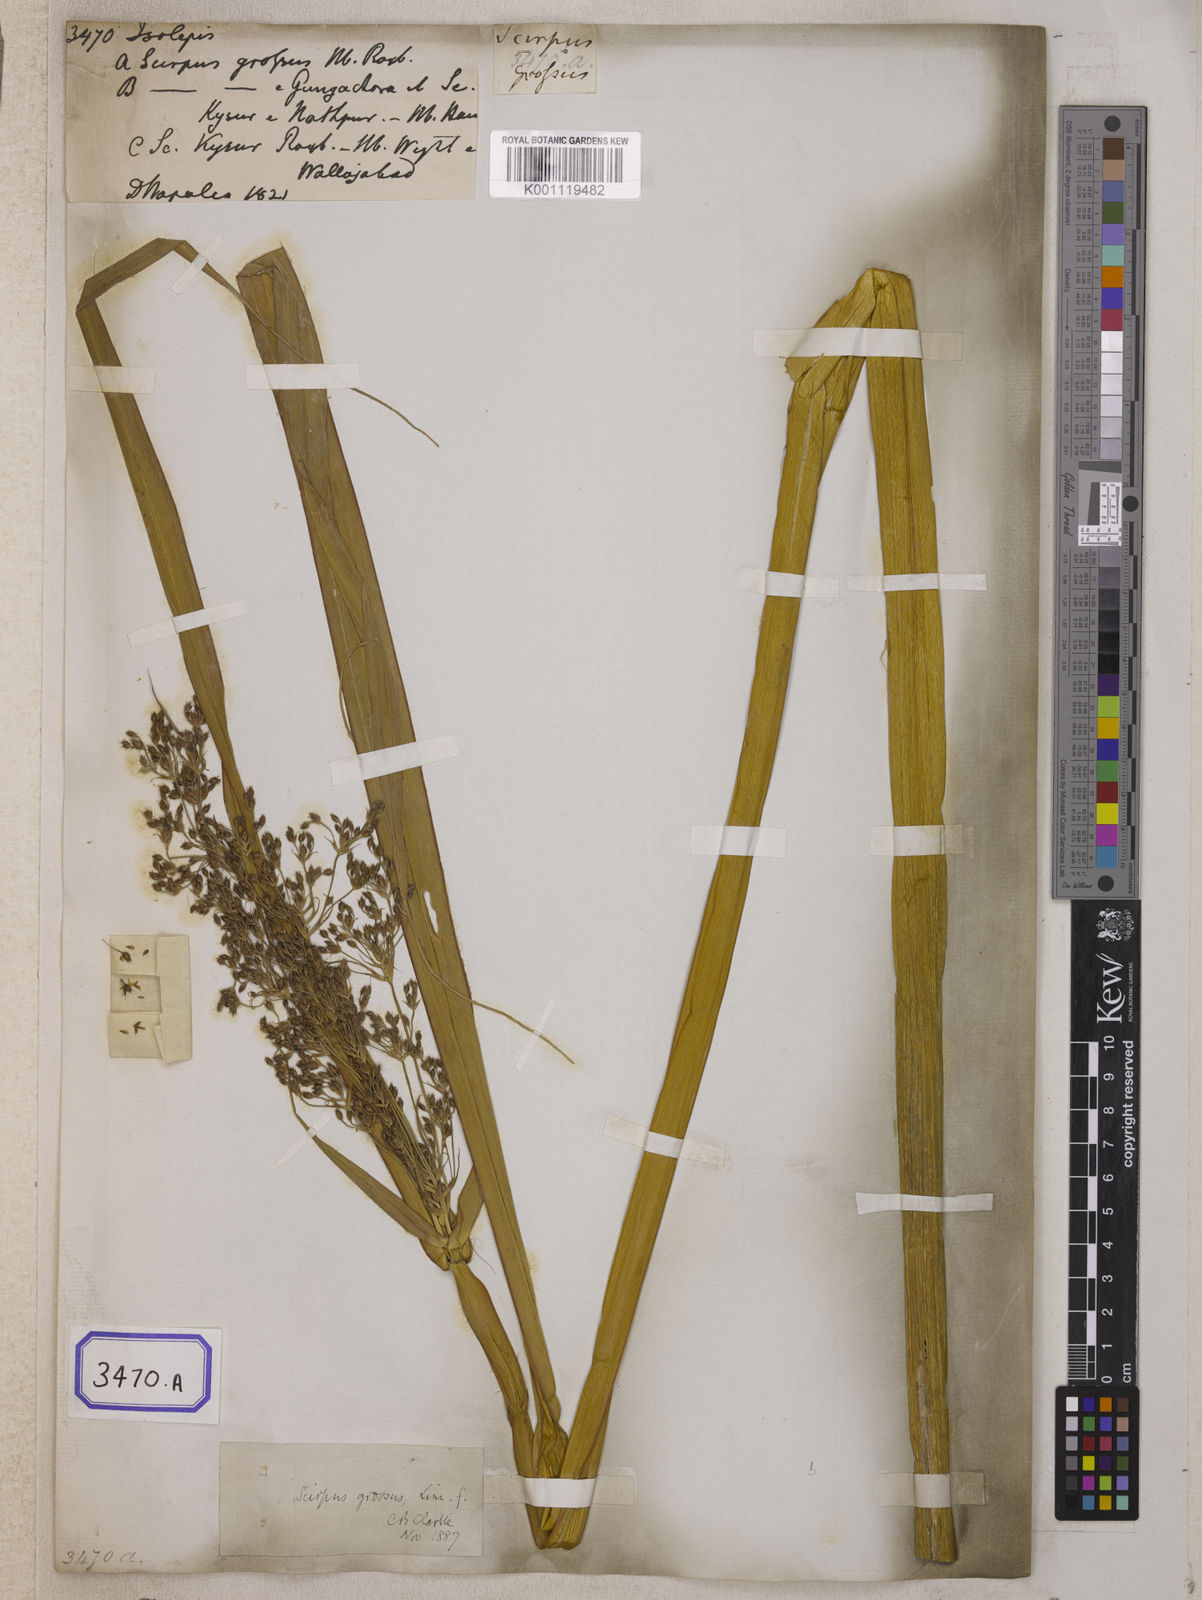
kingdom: Plantae
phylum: Tracheophyta
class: Liliopsida
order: Poales
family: Cyperaceae
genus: Isolepis
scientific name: Isolepis
